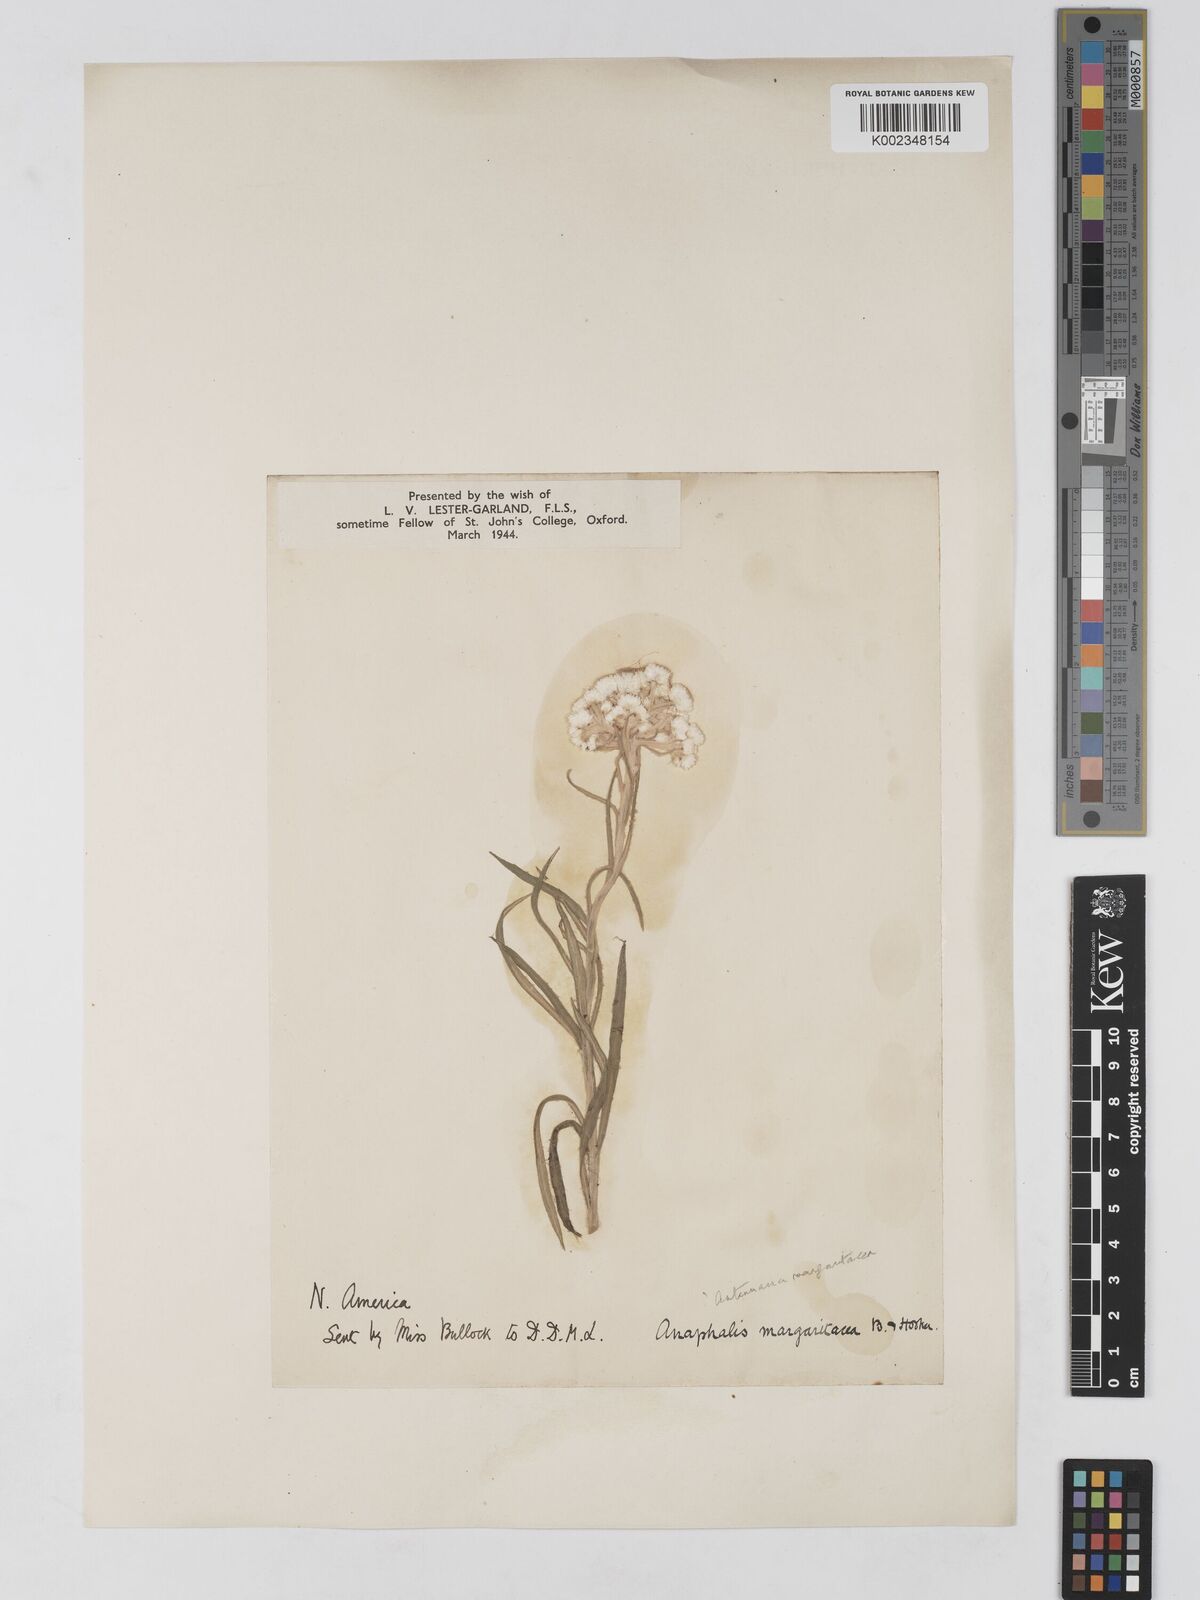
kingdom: Plantae
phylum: Tracheophyta
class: Magnoliopsida
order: Asterales
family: Asteraceae
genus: Anaphalis
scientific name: Anaphalis margaritacea
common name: Pearly everlasting
